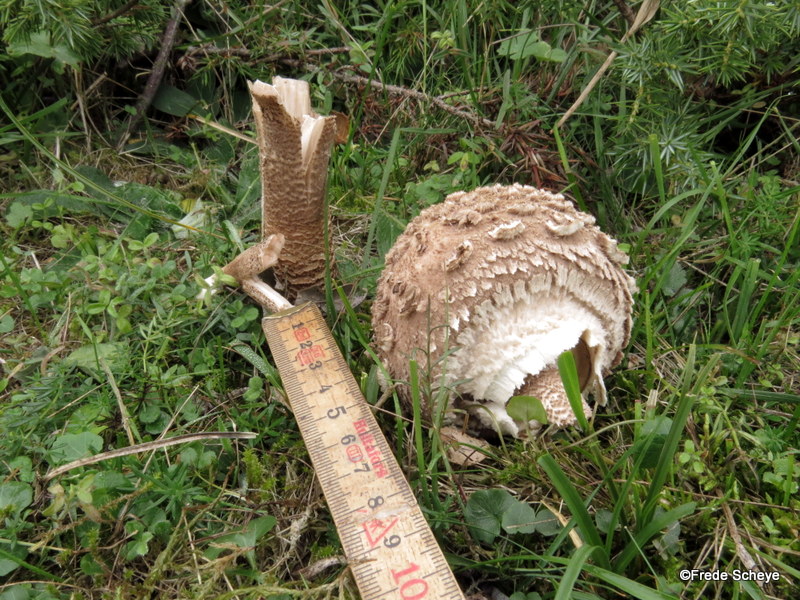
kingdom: Fungi
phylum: Basidiomycota
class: Agaricomycetes
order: Agaricales
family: Agaricaceae
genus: Macrolepiota
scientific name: Macrolepiota procera
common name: stor kæmpeparasolhat
